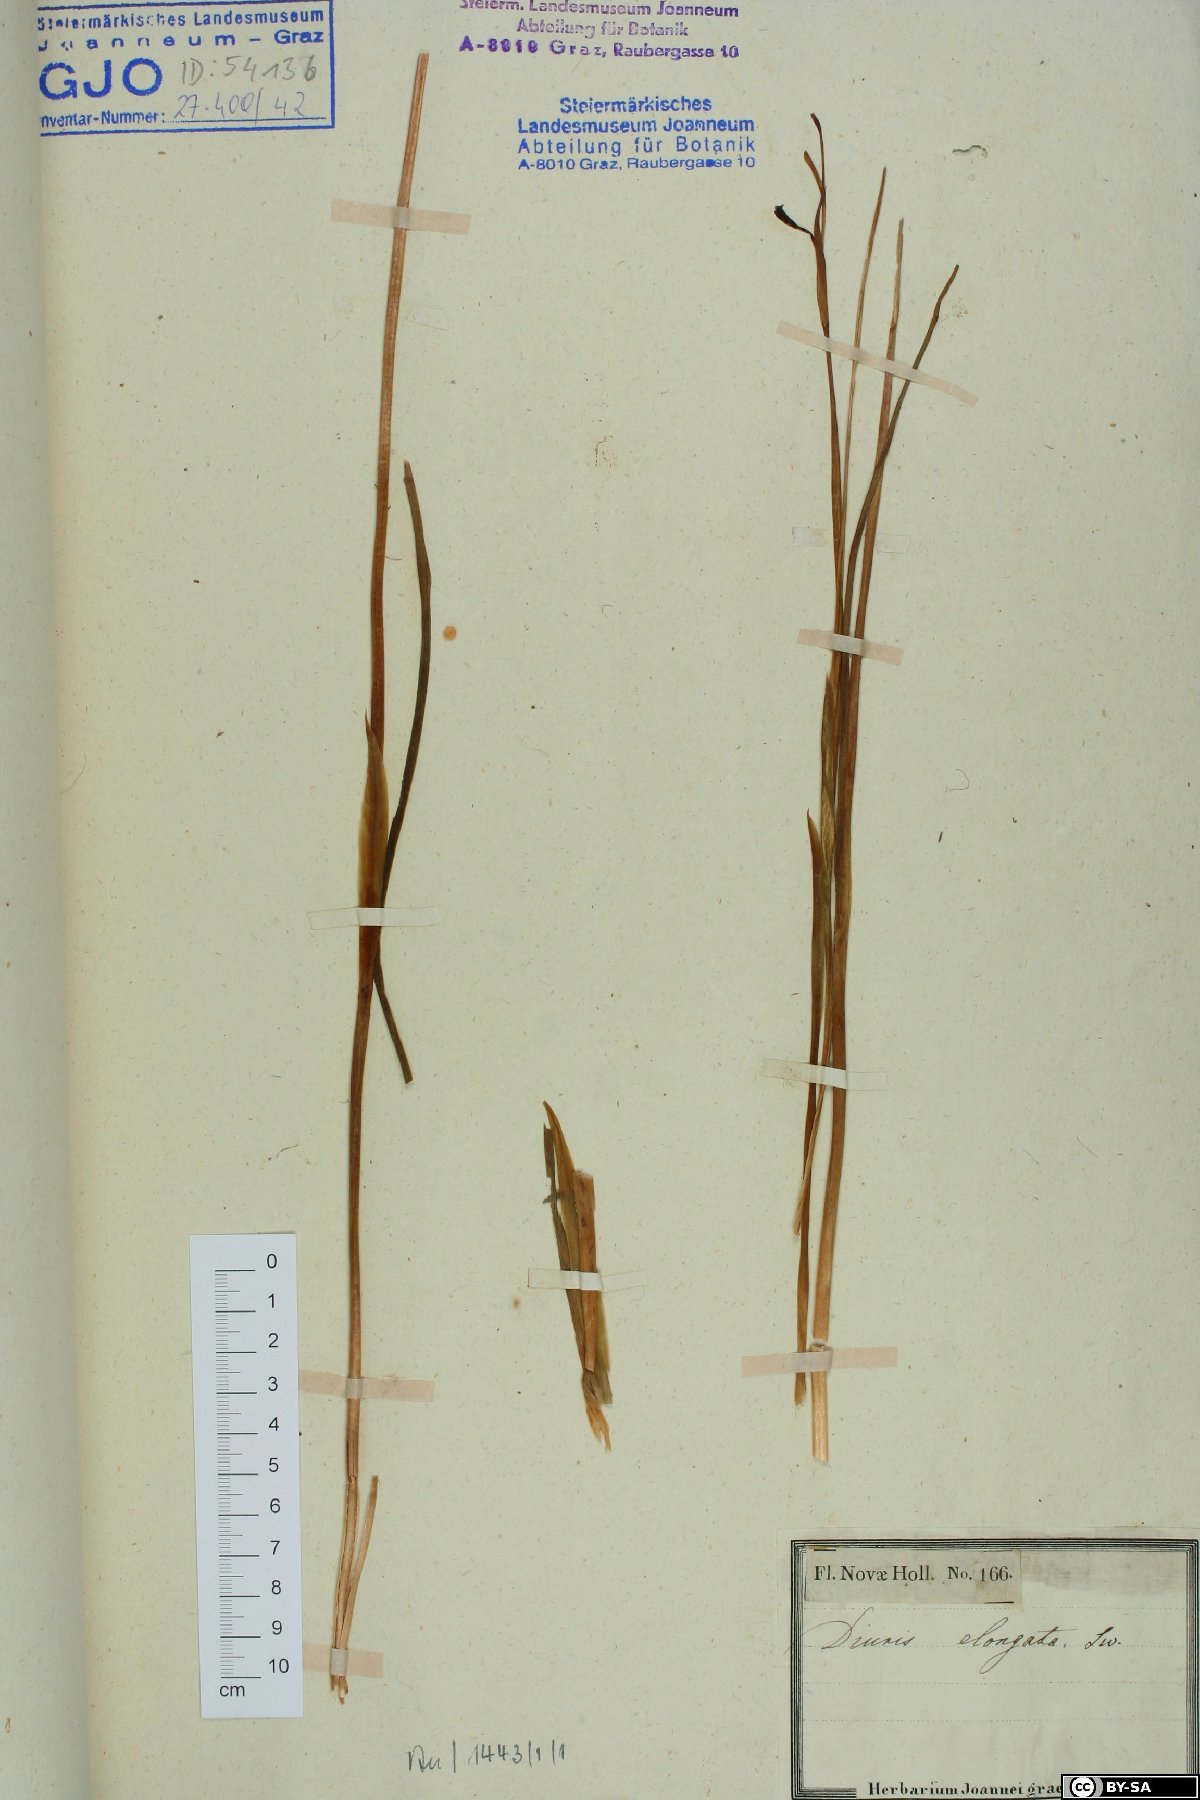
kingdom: Plantae
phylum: Tracheophyta
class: Liliopsida
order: Asparagales
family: Orchidaceae
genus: Diuris
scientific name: Diuris punctata
